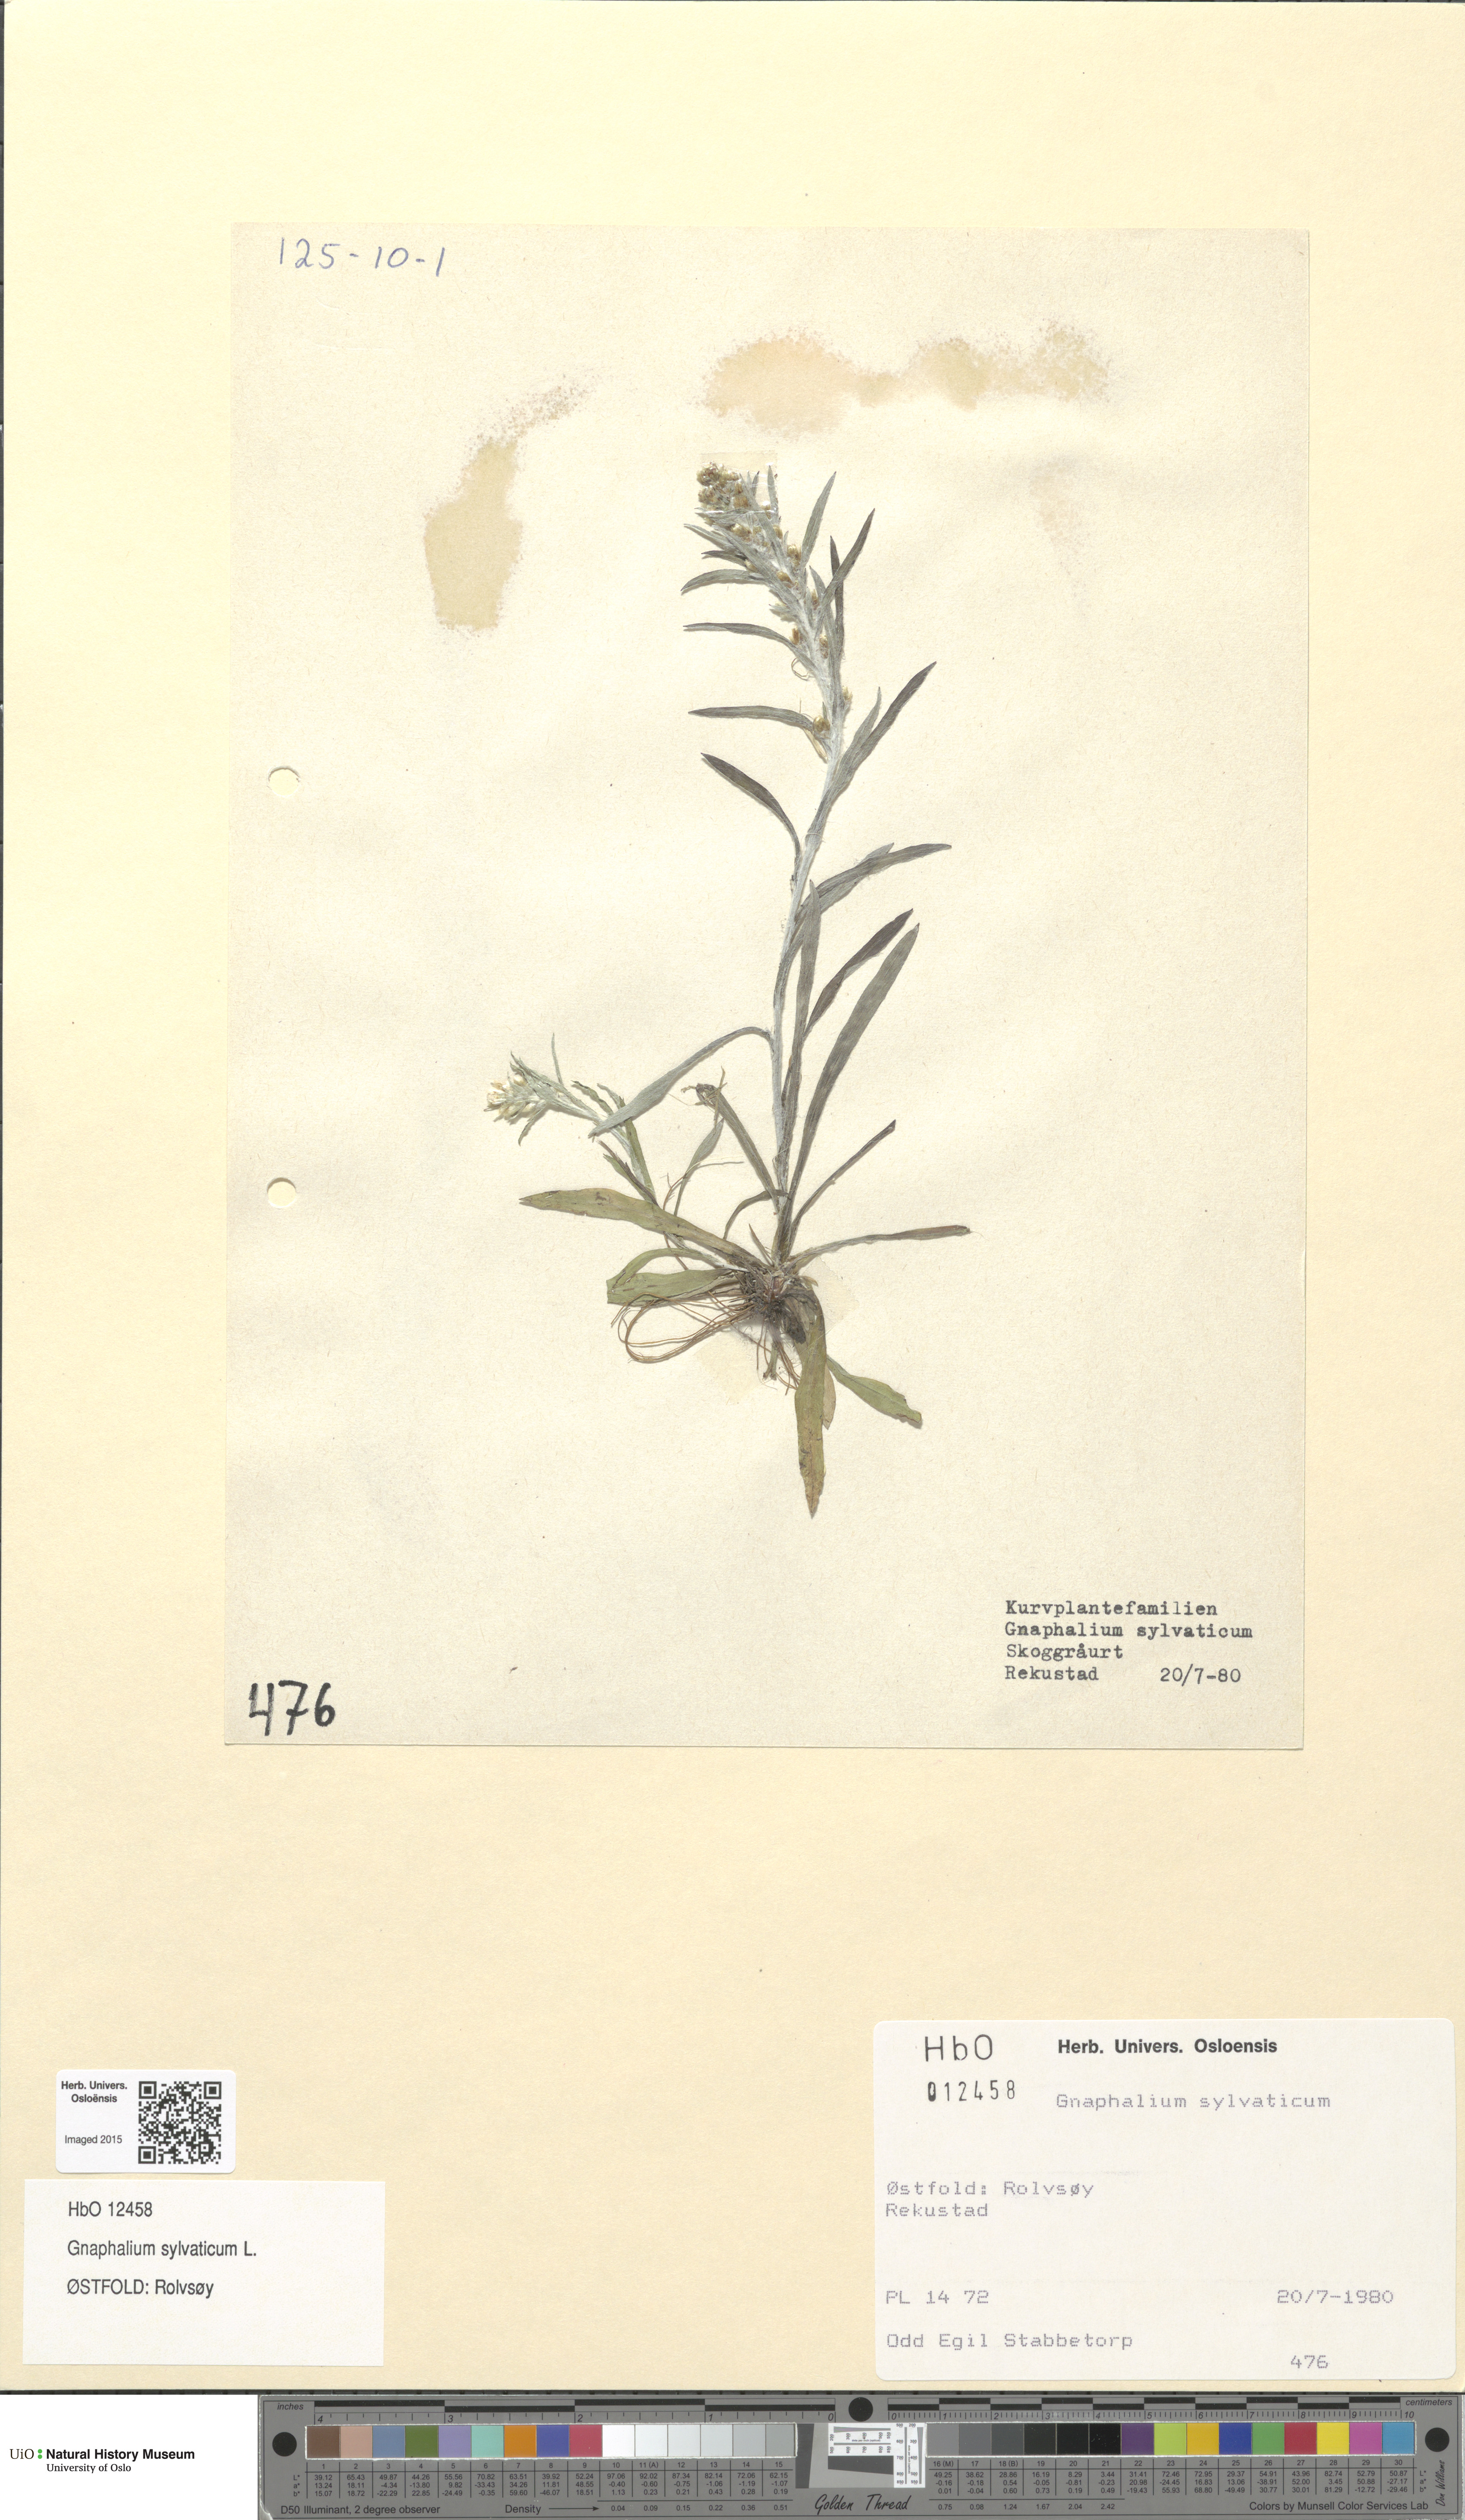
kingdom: Plantae
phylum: Tracheophyta
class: Magnoliopsida
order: Asterales
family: Asteraceae
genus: Omalotheca
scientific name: Omalotheca sylvatica
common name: Heath cudweed
